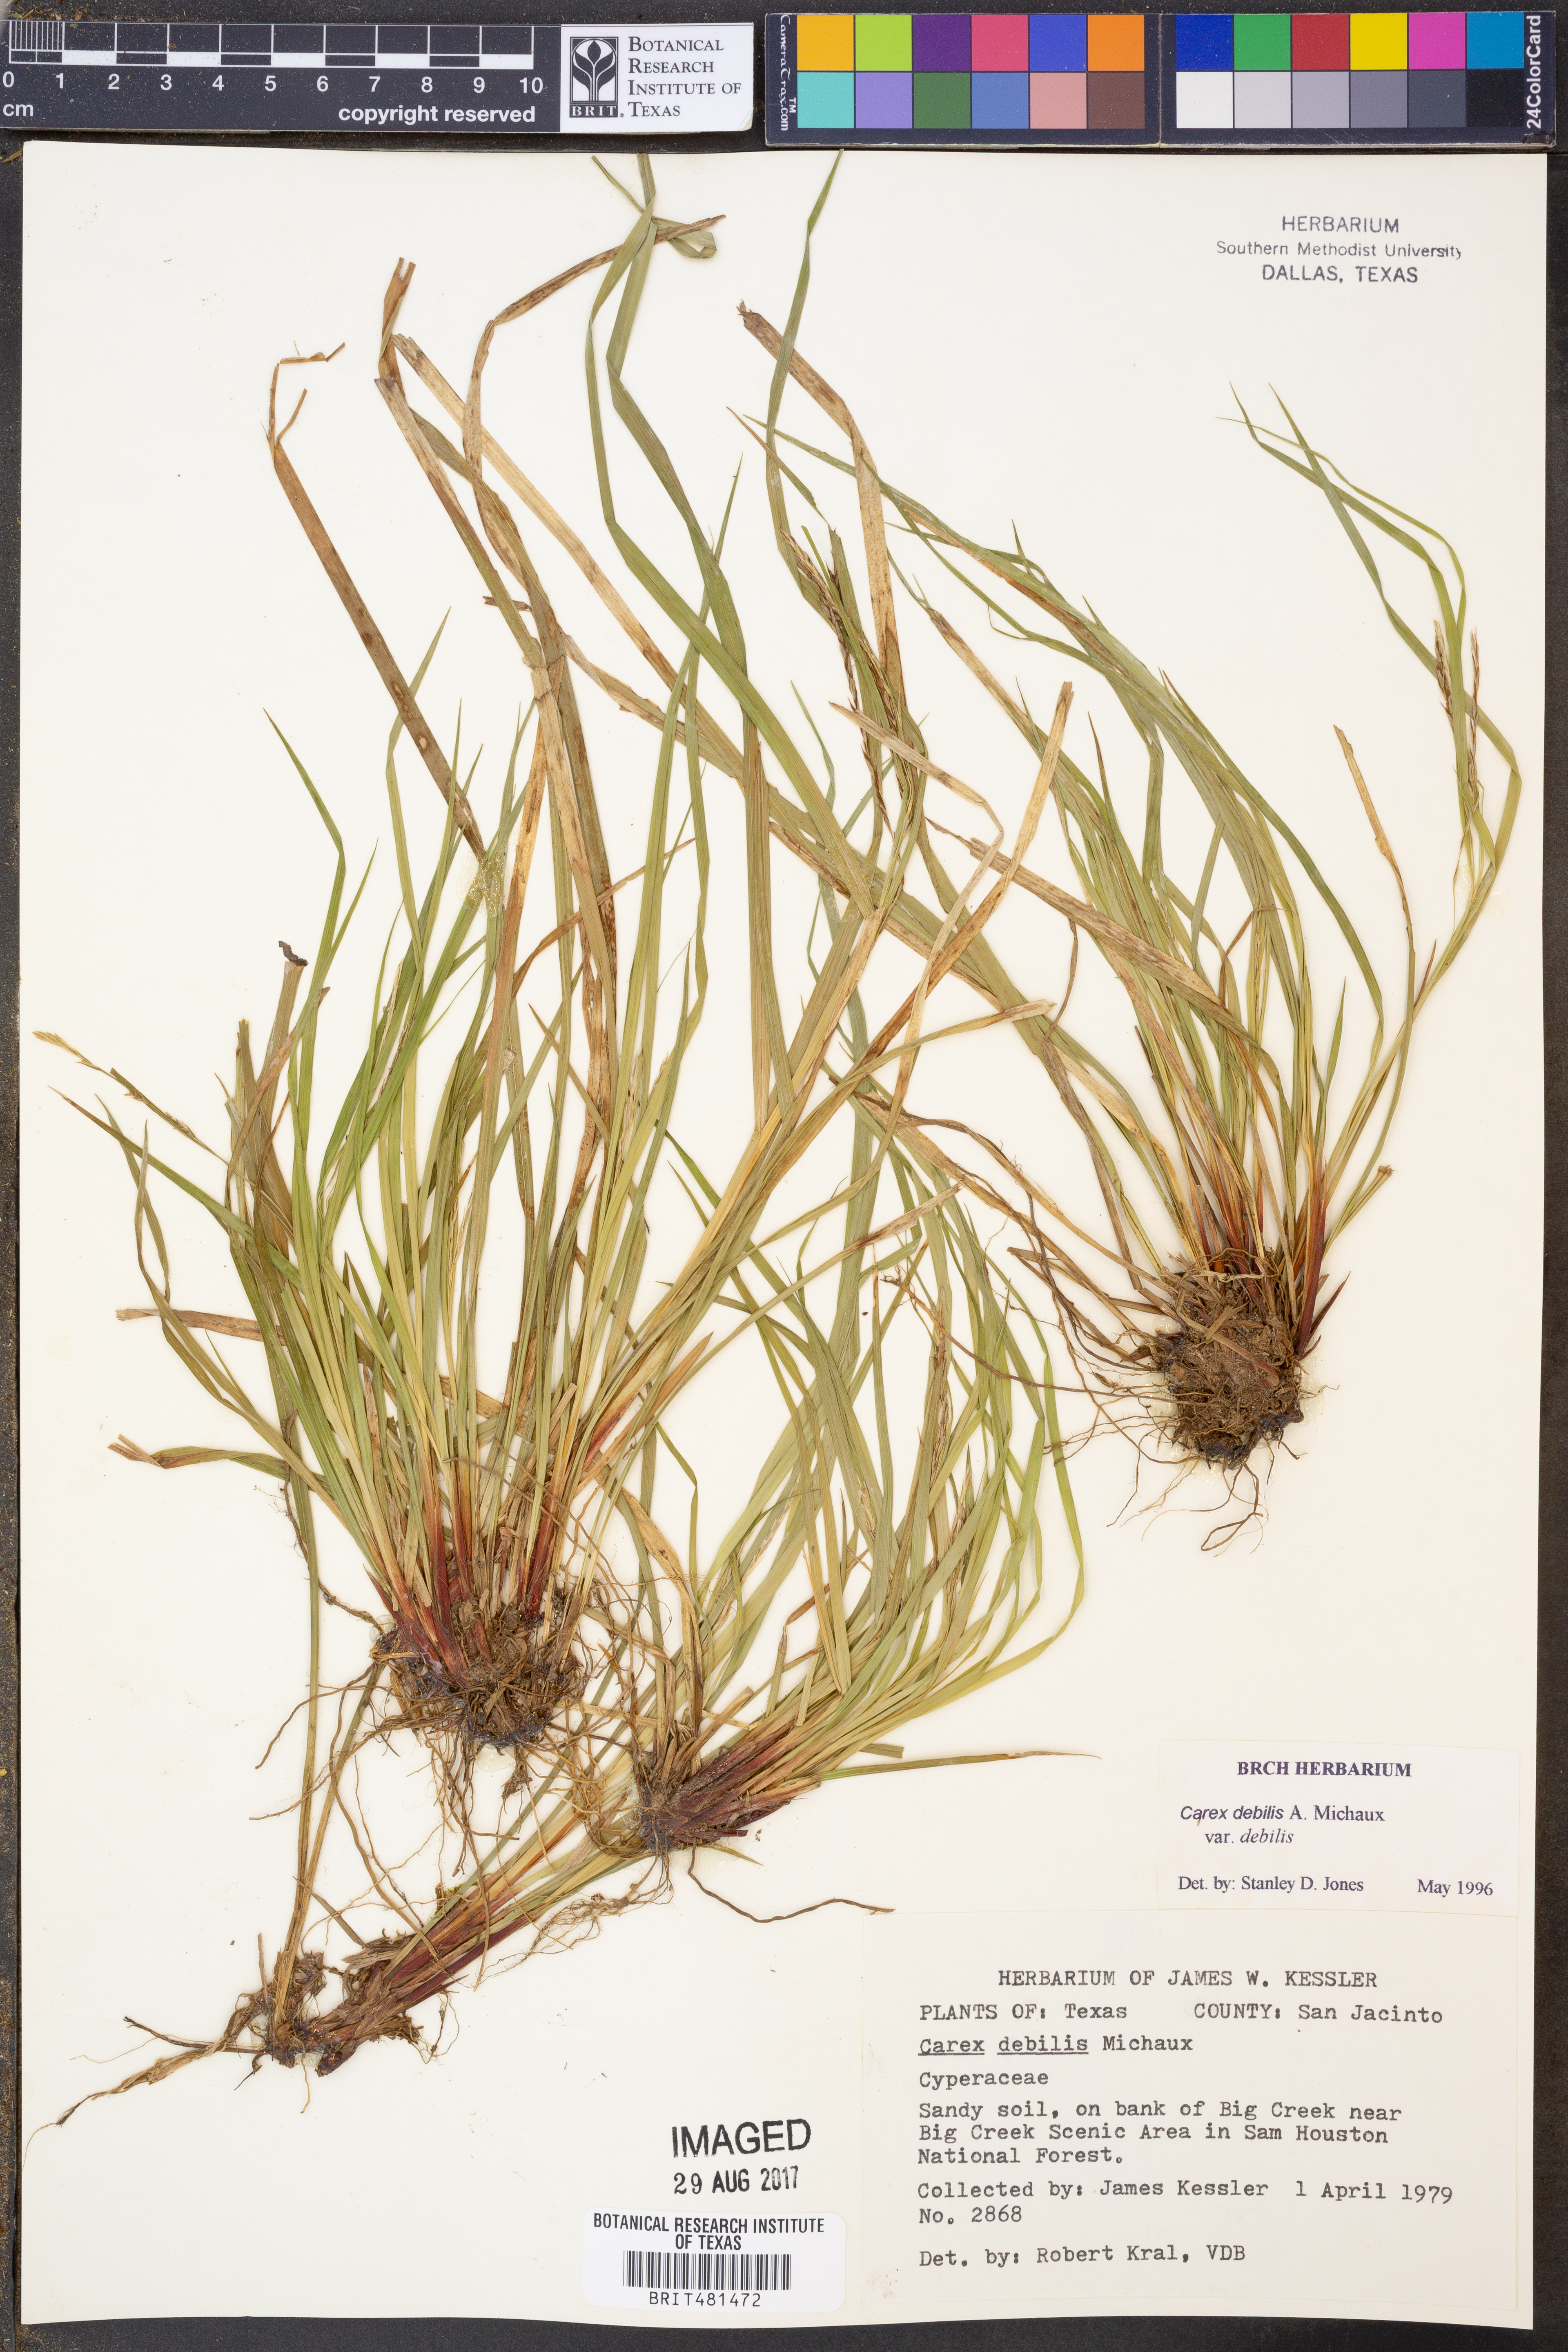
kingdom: Plantae
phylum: Tracheophyta
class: Liliopsida
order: Poales
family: Cyperaceae
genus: Carex
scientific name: Carex debilis
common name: White-edge sedge
